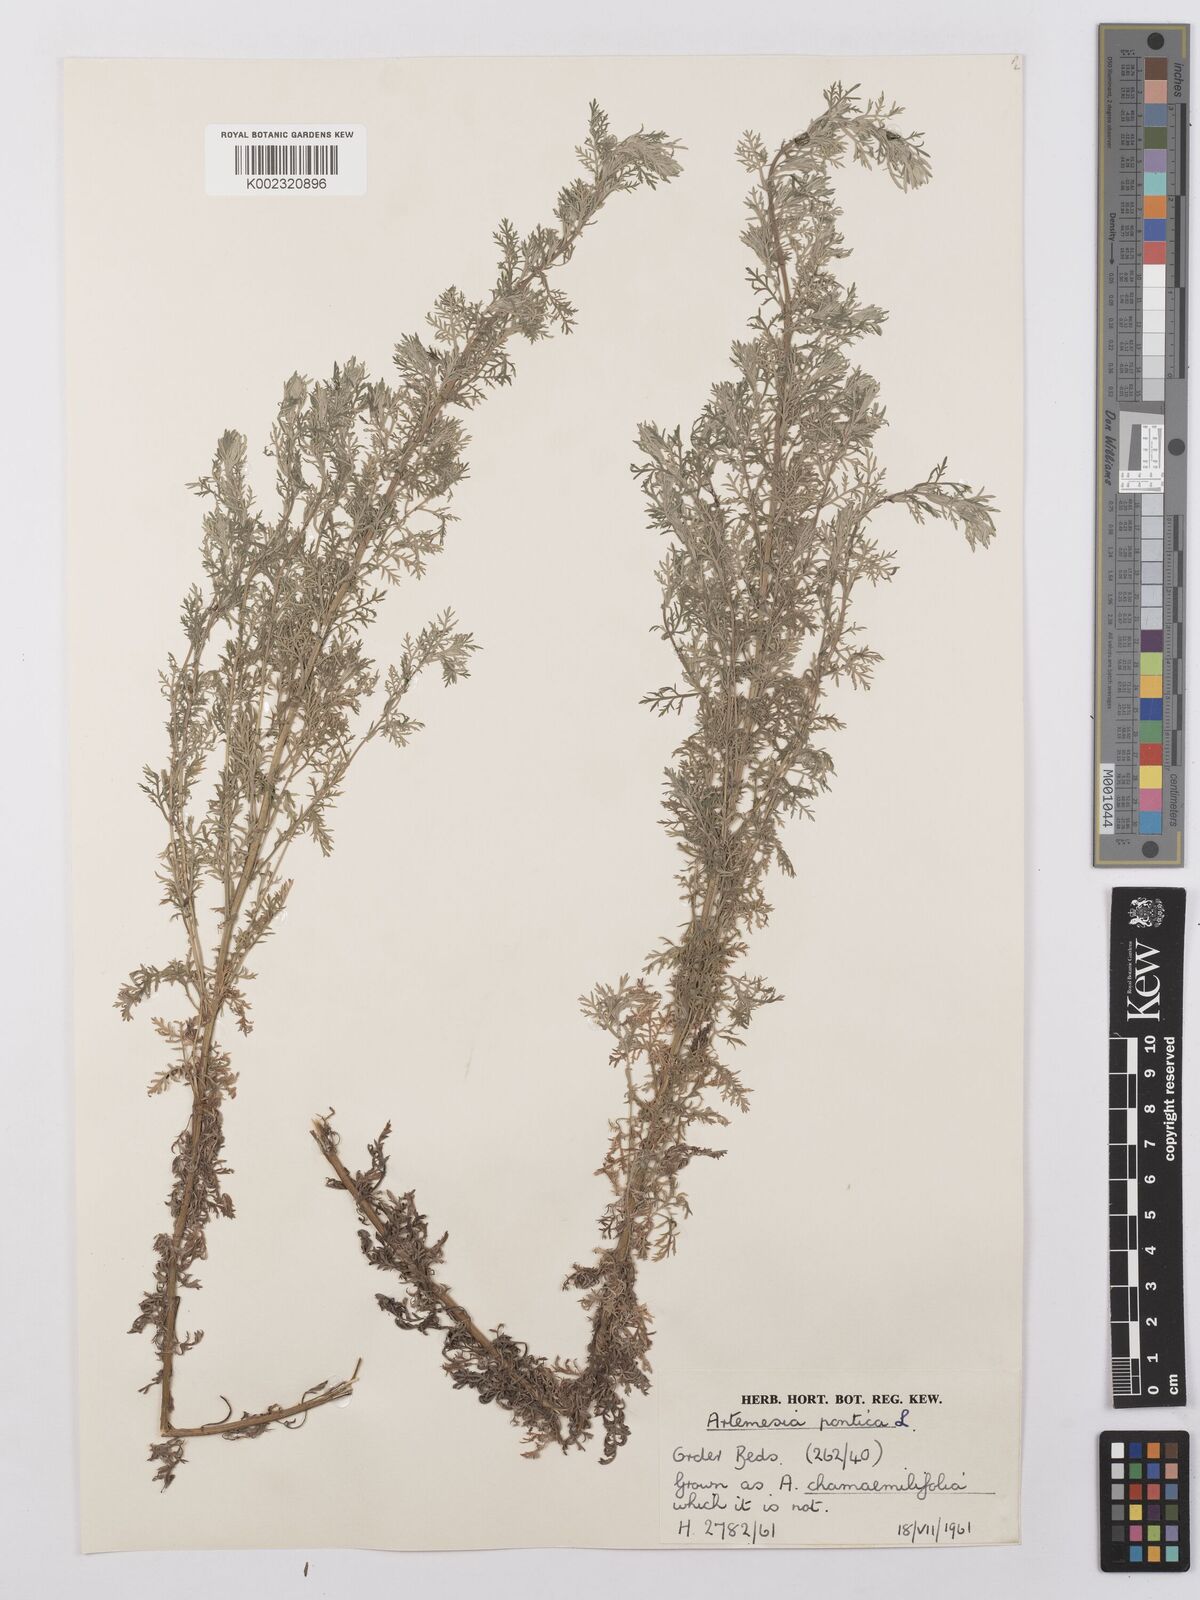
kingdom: Plantae
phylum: Tracheophyta
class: Magnoliopsida
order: Asterales
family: Asteraceae
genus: Artemisia
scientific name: Artemisia pontica
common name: Roman wormwood
